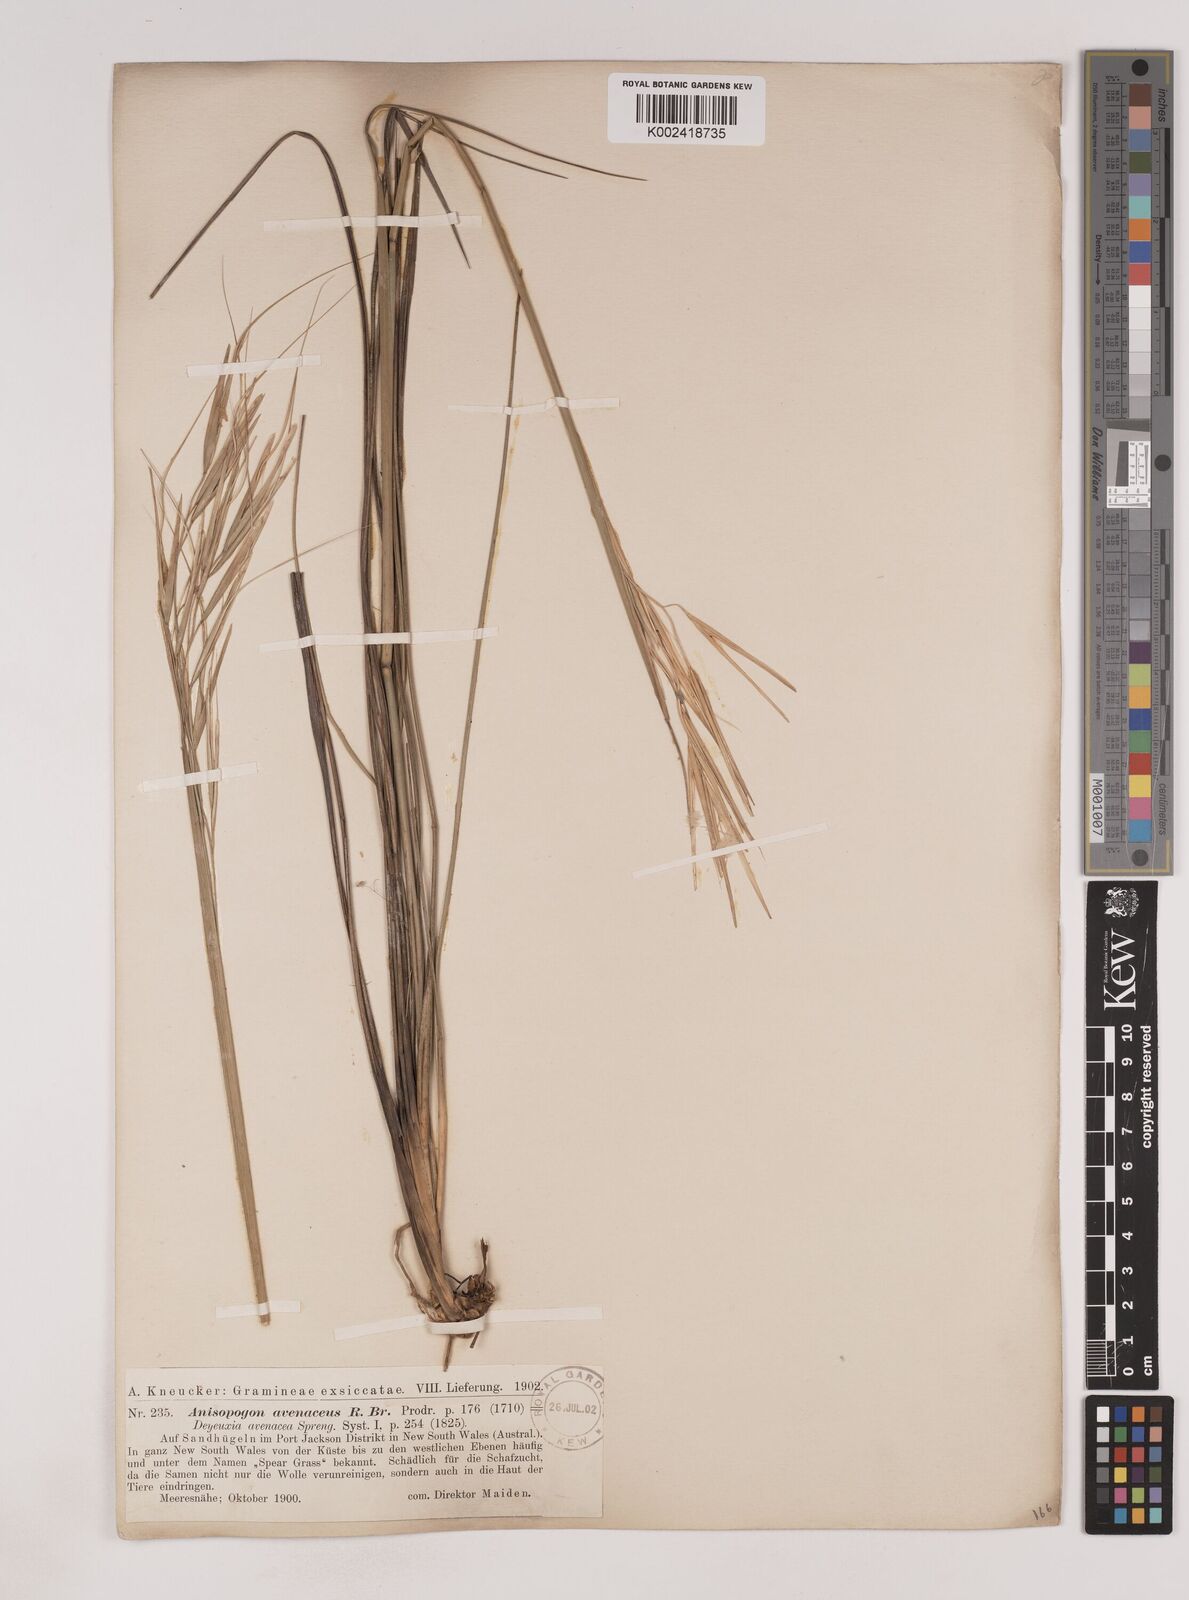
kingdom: Plantae
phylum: Tracheophyta
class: Liliopsida
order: Poales
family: Poaceae
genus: Anisopogon
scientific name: Anisopogon avenaceus
